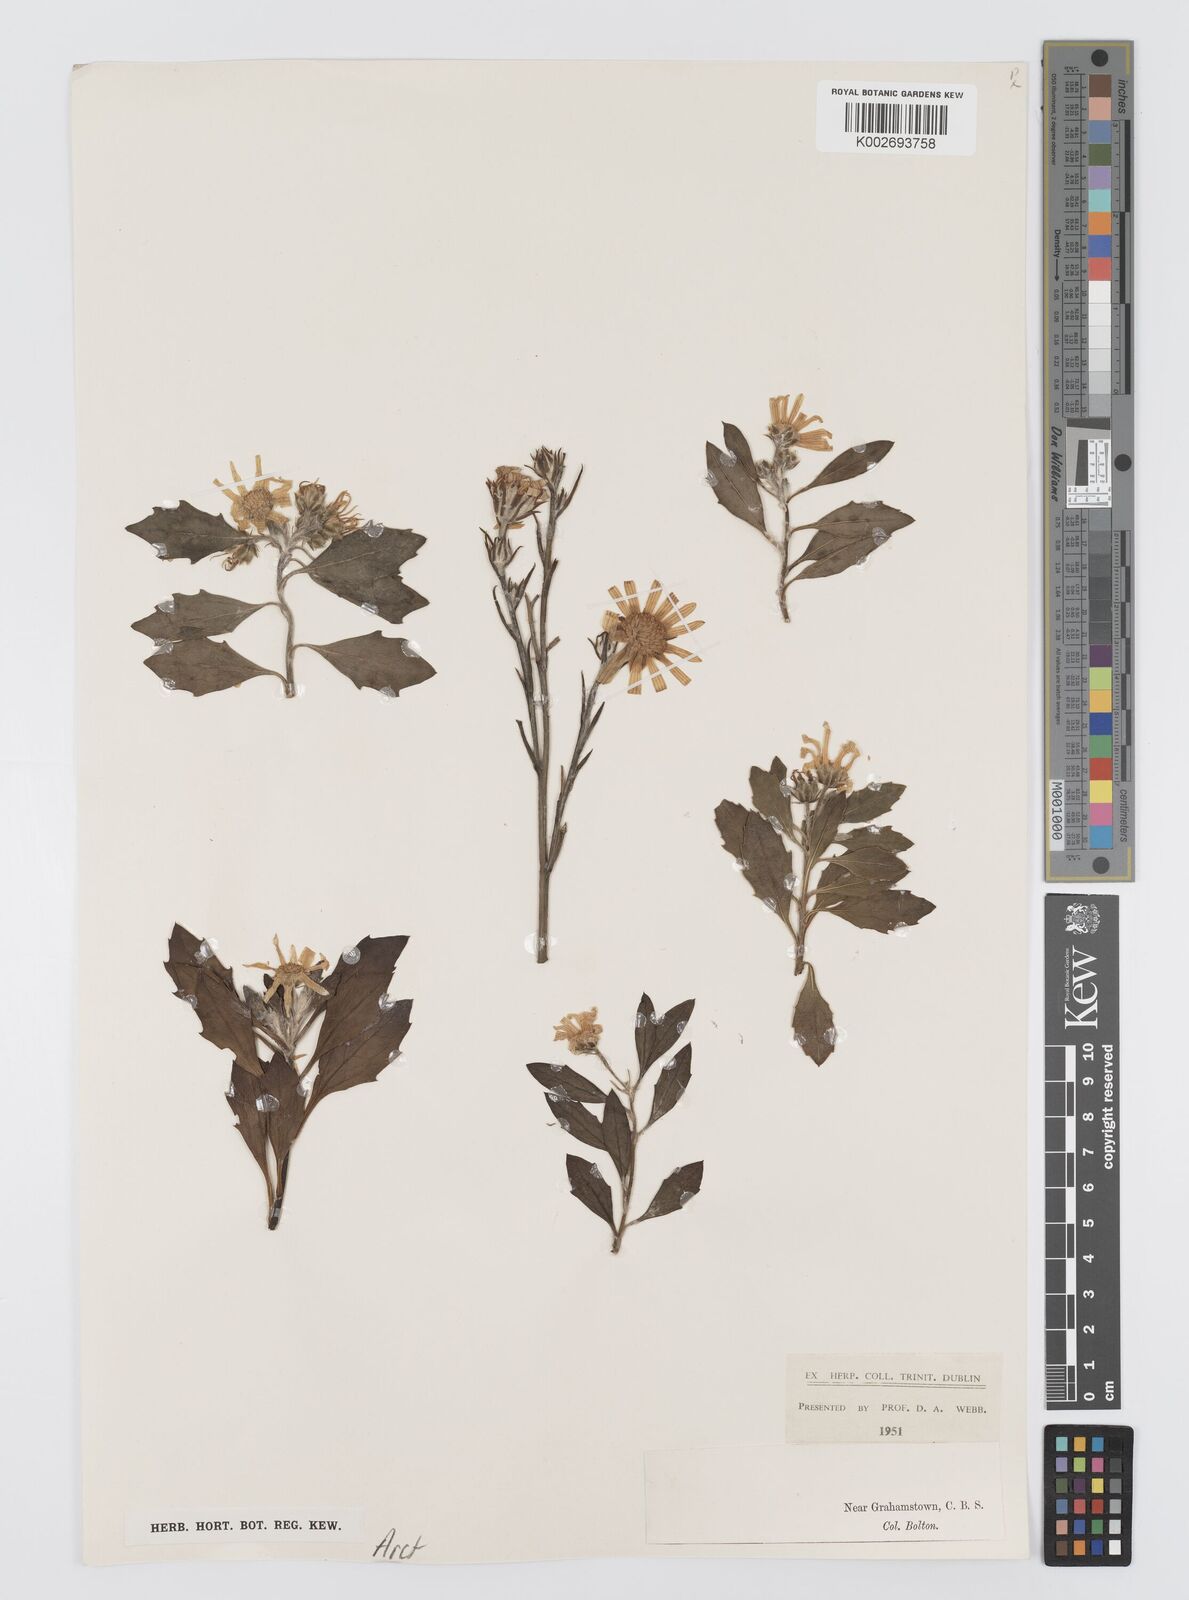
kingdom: Plantae
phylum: Tracheophyta
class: Magnoliopsida
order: Asterales
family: Asteraceae
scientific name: Asteraceae
